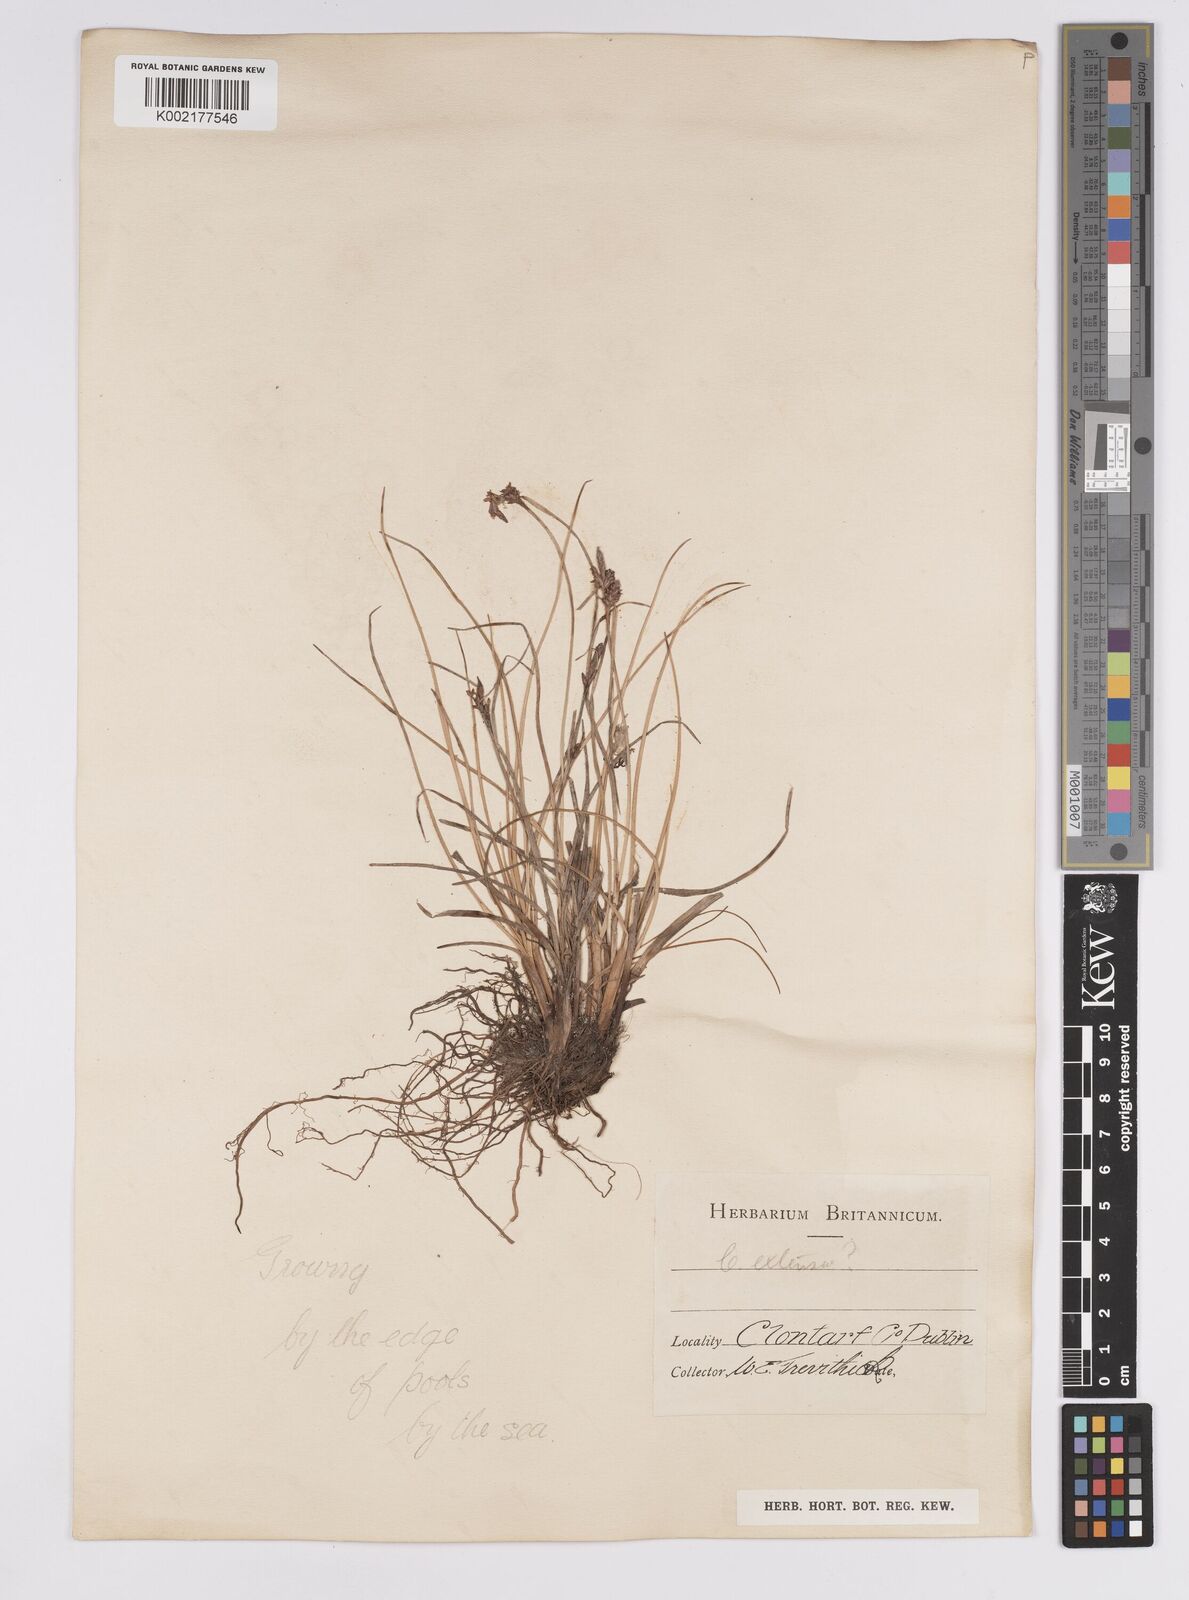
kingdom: Plantae
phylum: Tracheophyta
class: Liliopsida
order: Poales
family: Cyperaceae
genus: Carex
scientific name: Carex extensa
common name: Long-bracted sedge
